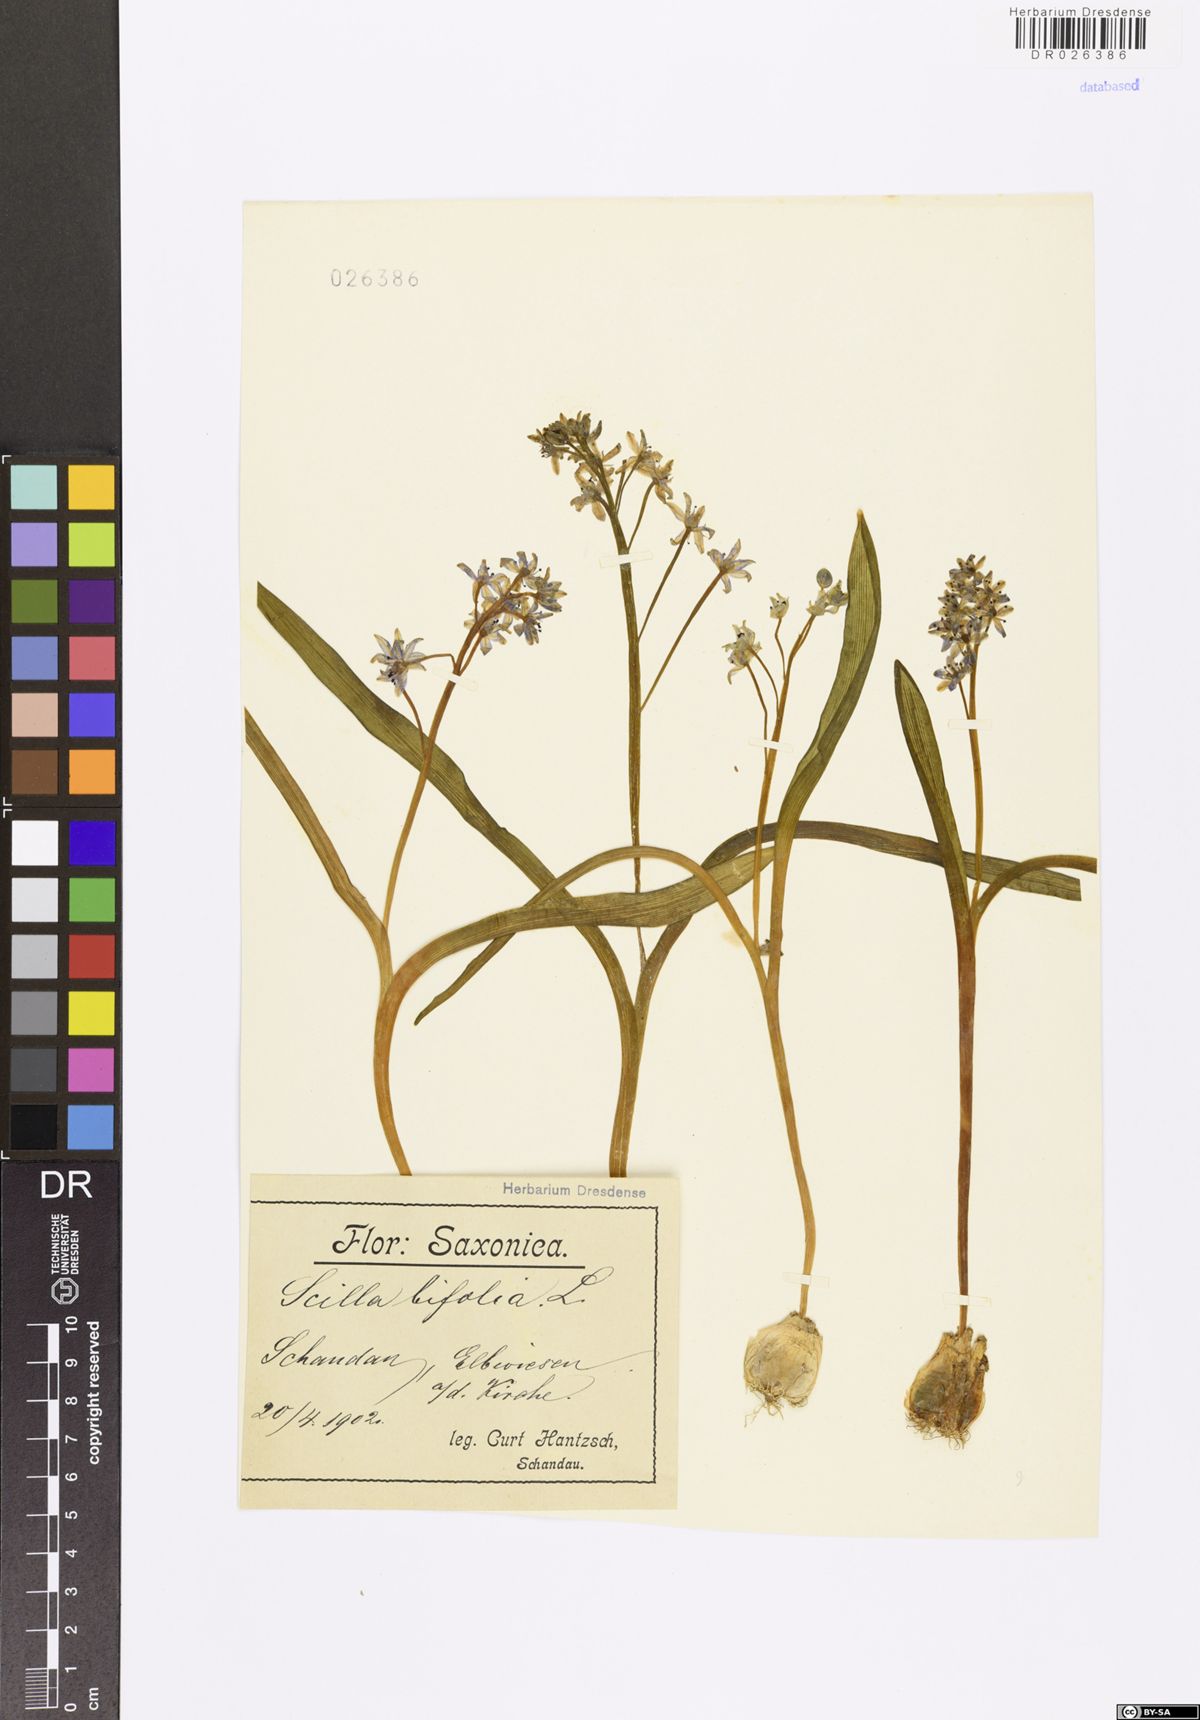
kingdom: Plantae
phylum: Tracheophyta
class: Liliopsida
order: Asparagales
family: Asparagaceae
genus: Scilla
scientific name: Scilla vindobonensis
